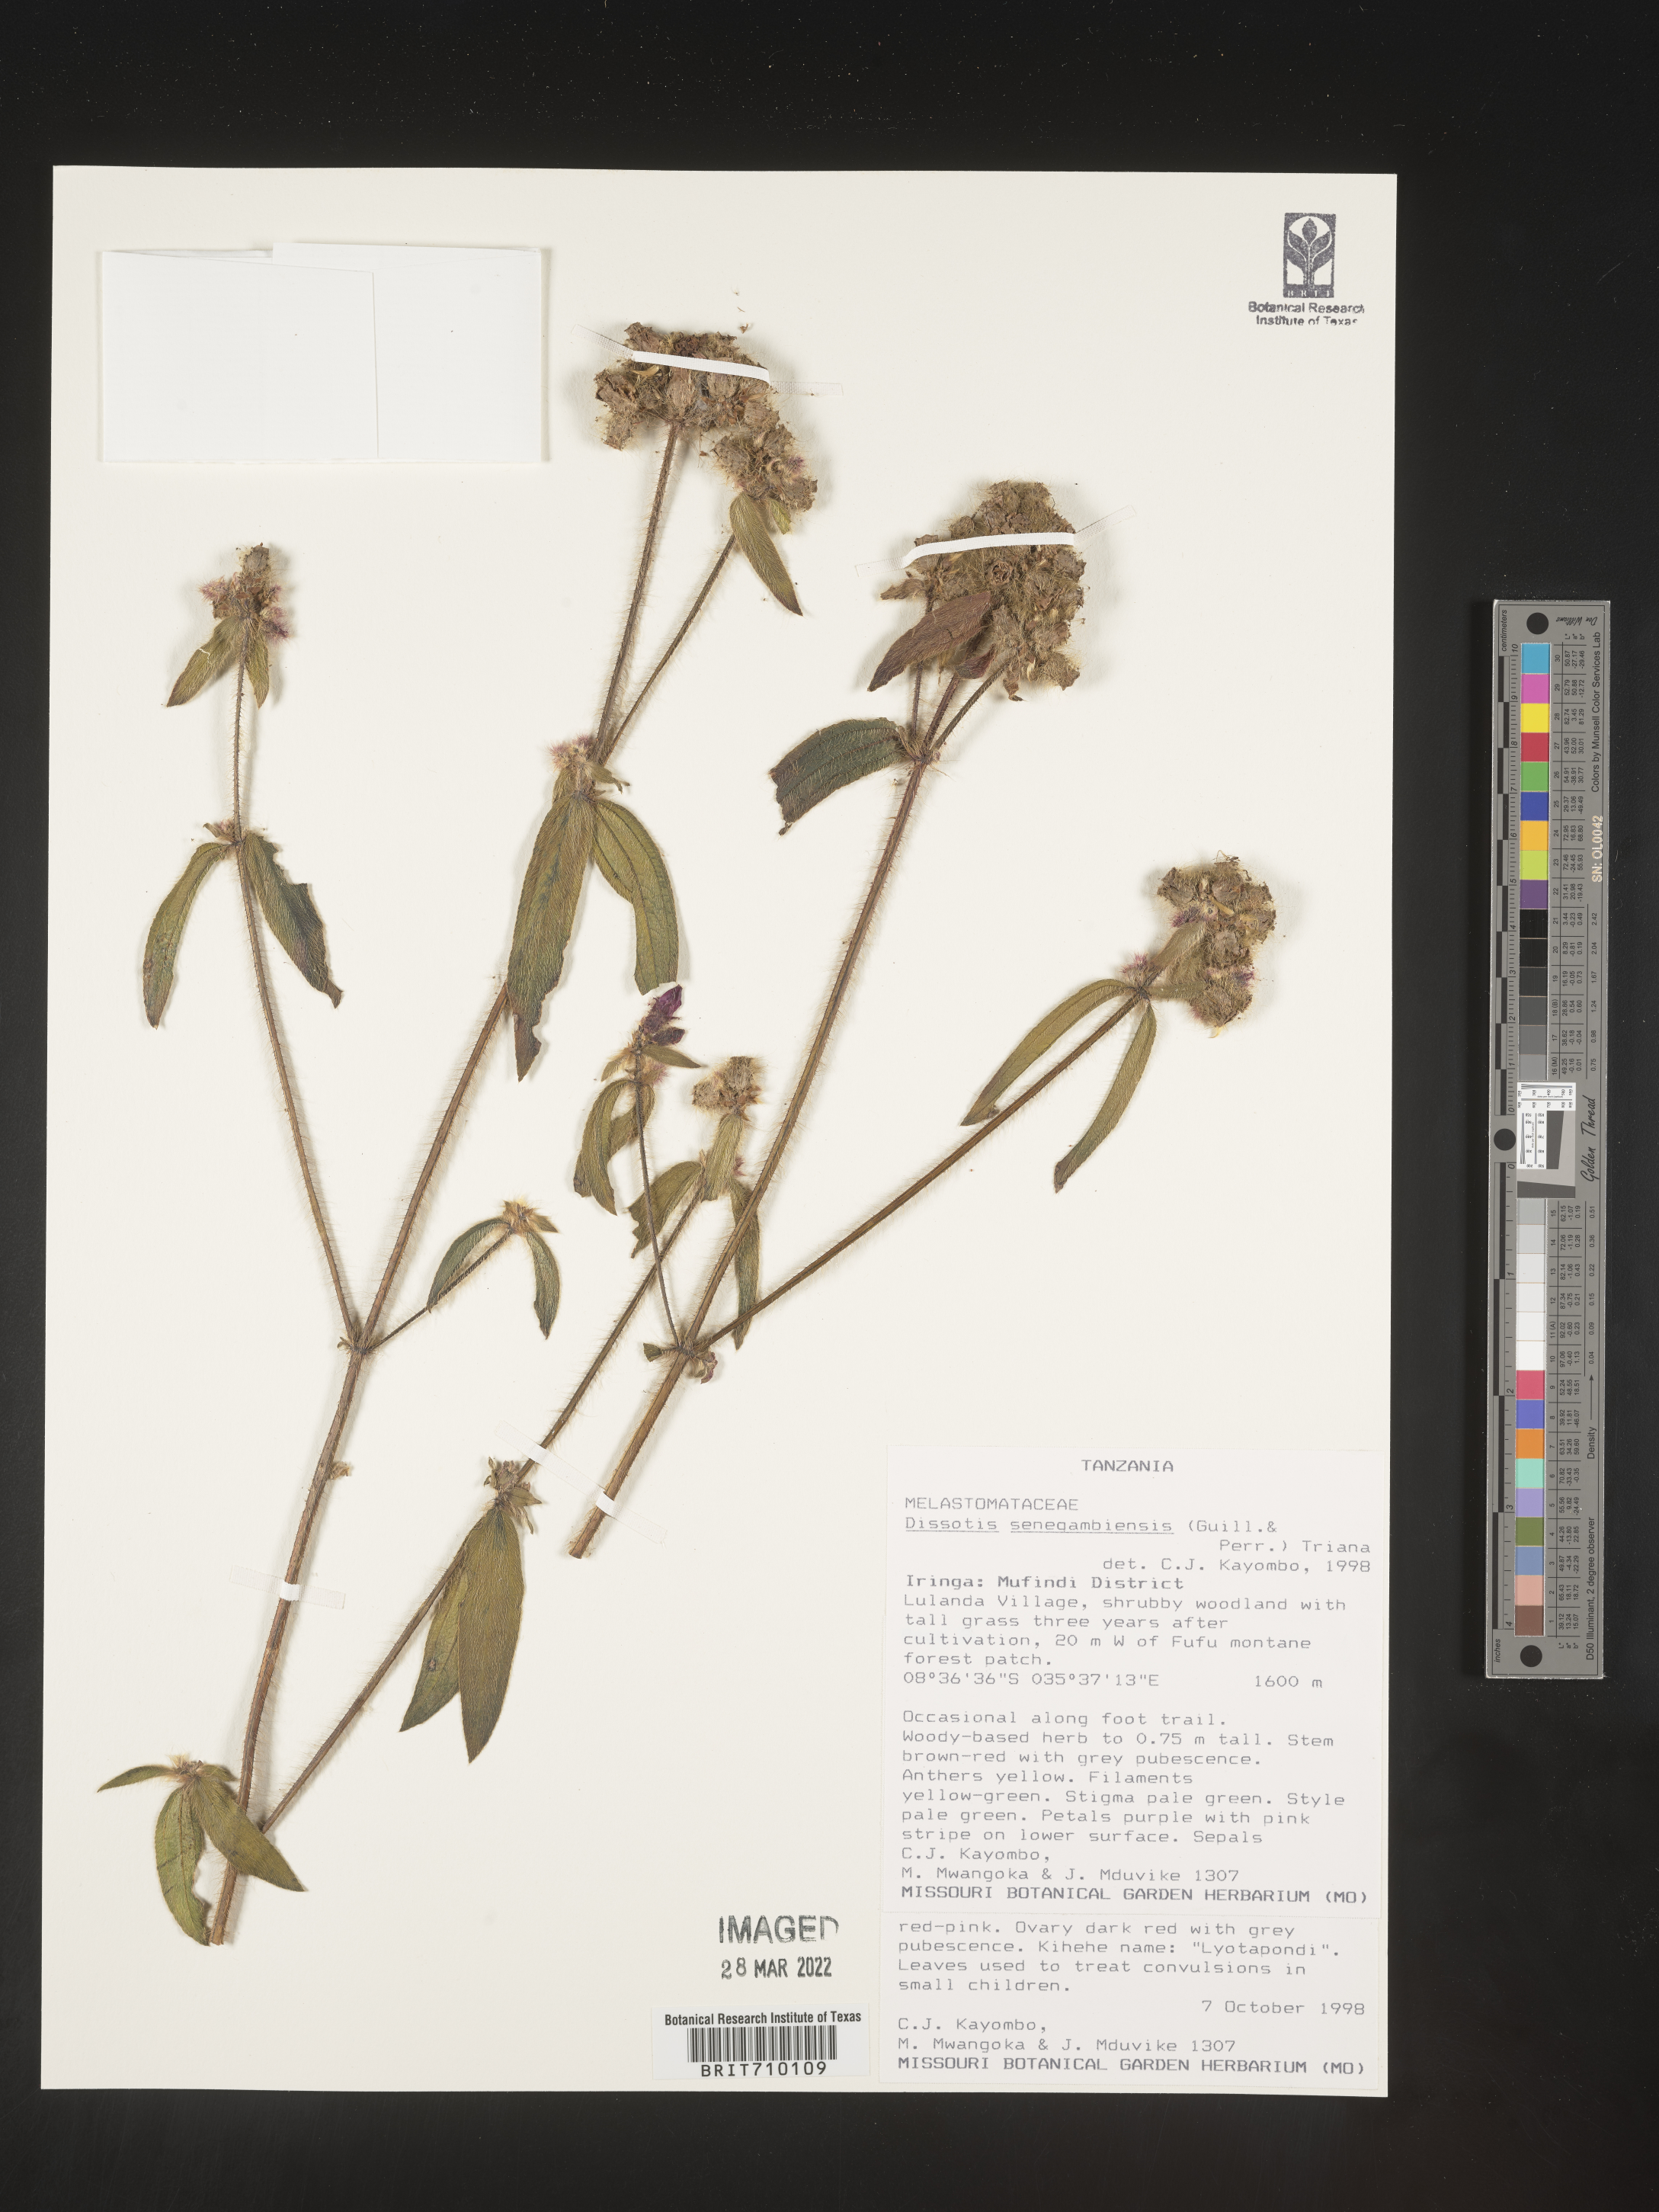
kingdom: Plantae
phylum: Tracheophyta
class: Magnoliopsida
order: Myrtales
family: Melastomataceae
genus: Dissotis
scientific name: Dissotis
